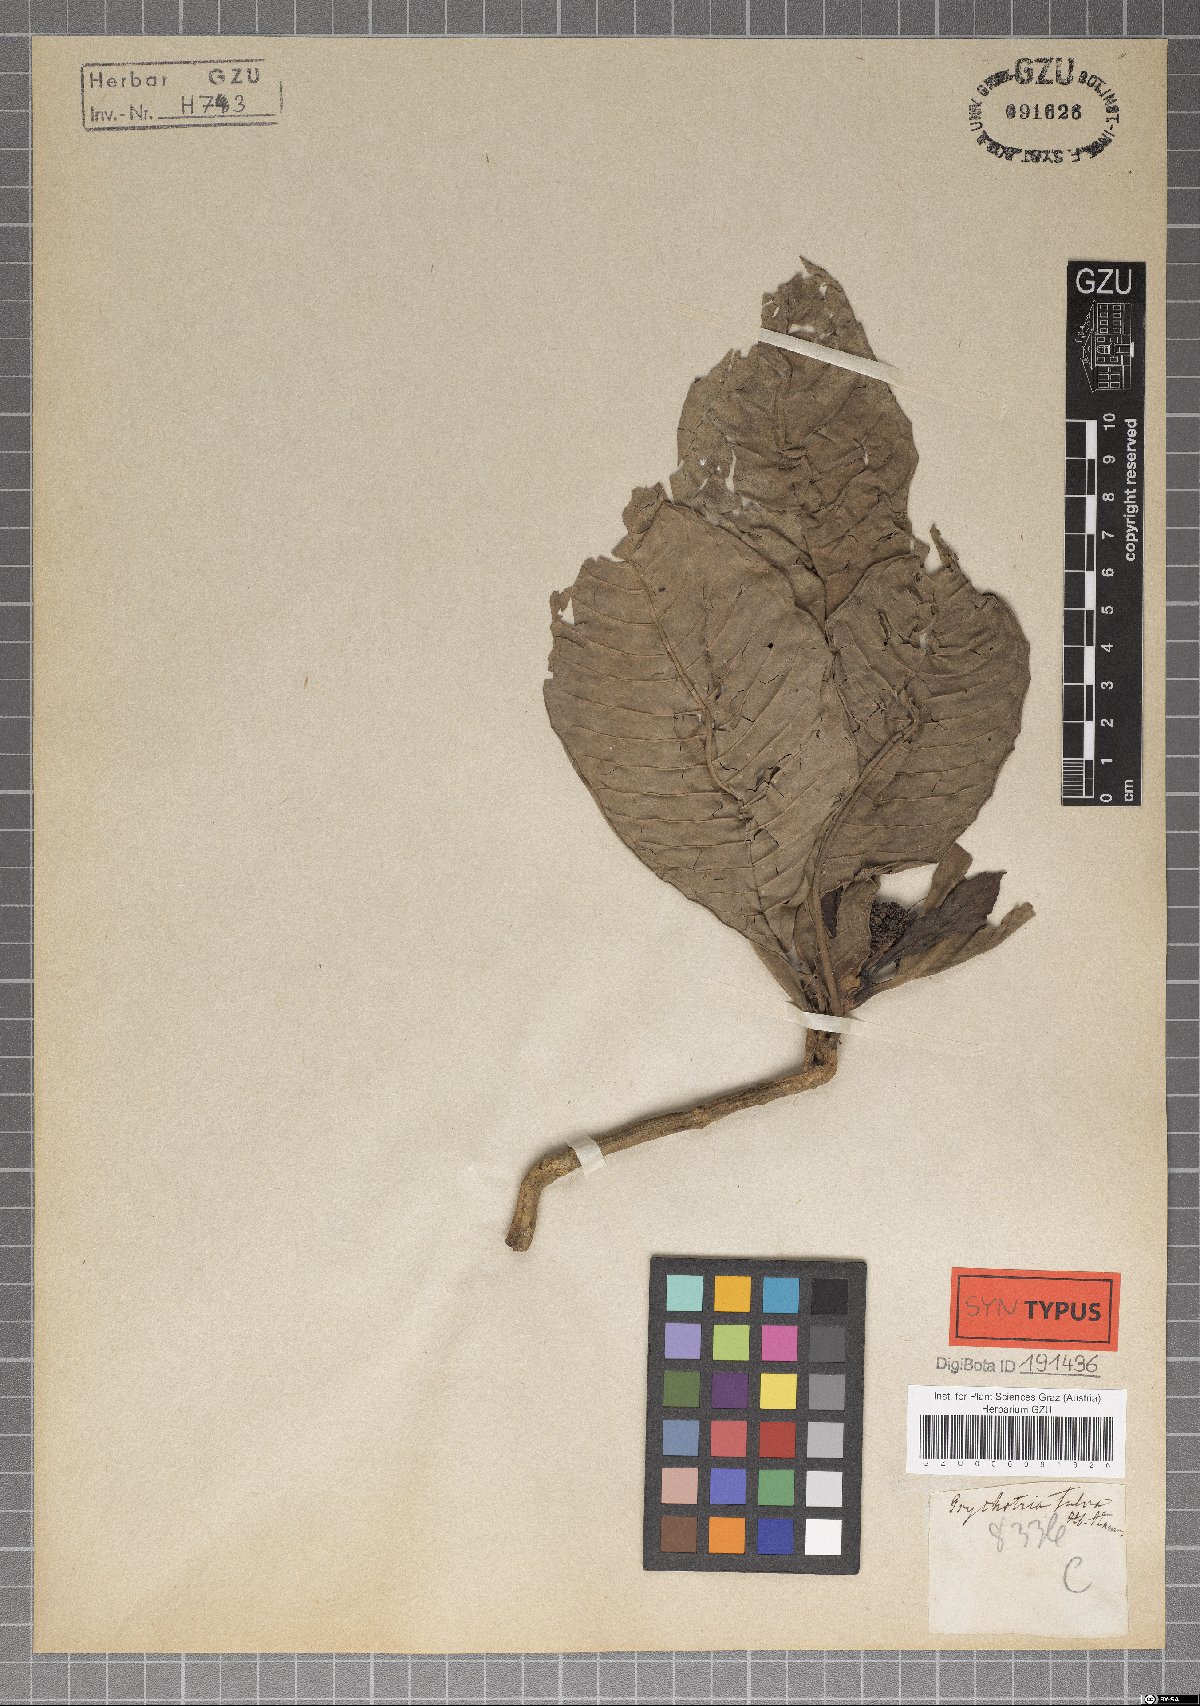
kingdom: Plantae
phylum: Tracheophyta
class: Magnoliopsida
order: Gentianales
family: Rubiaceae
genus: Psychotria
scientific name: Psychotria monticola
